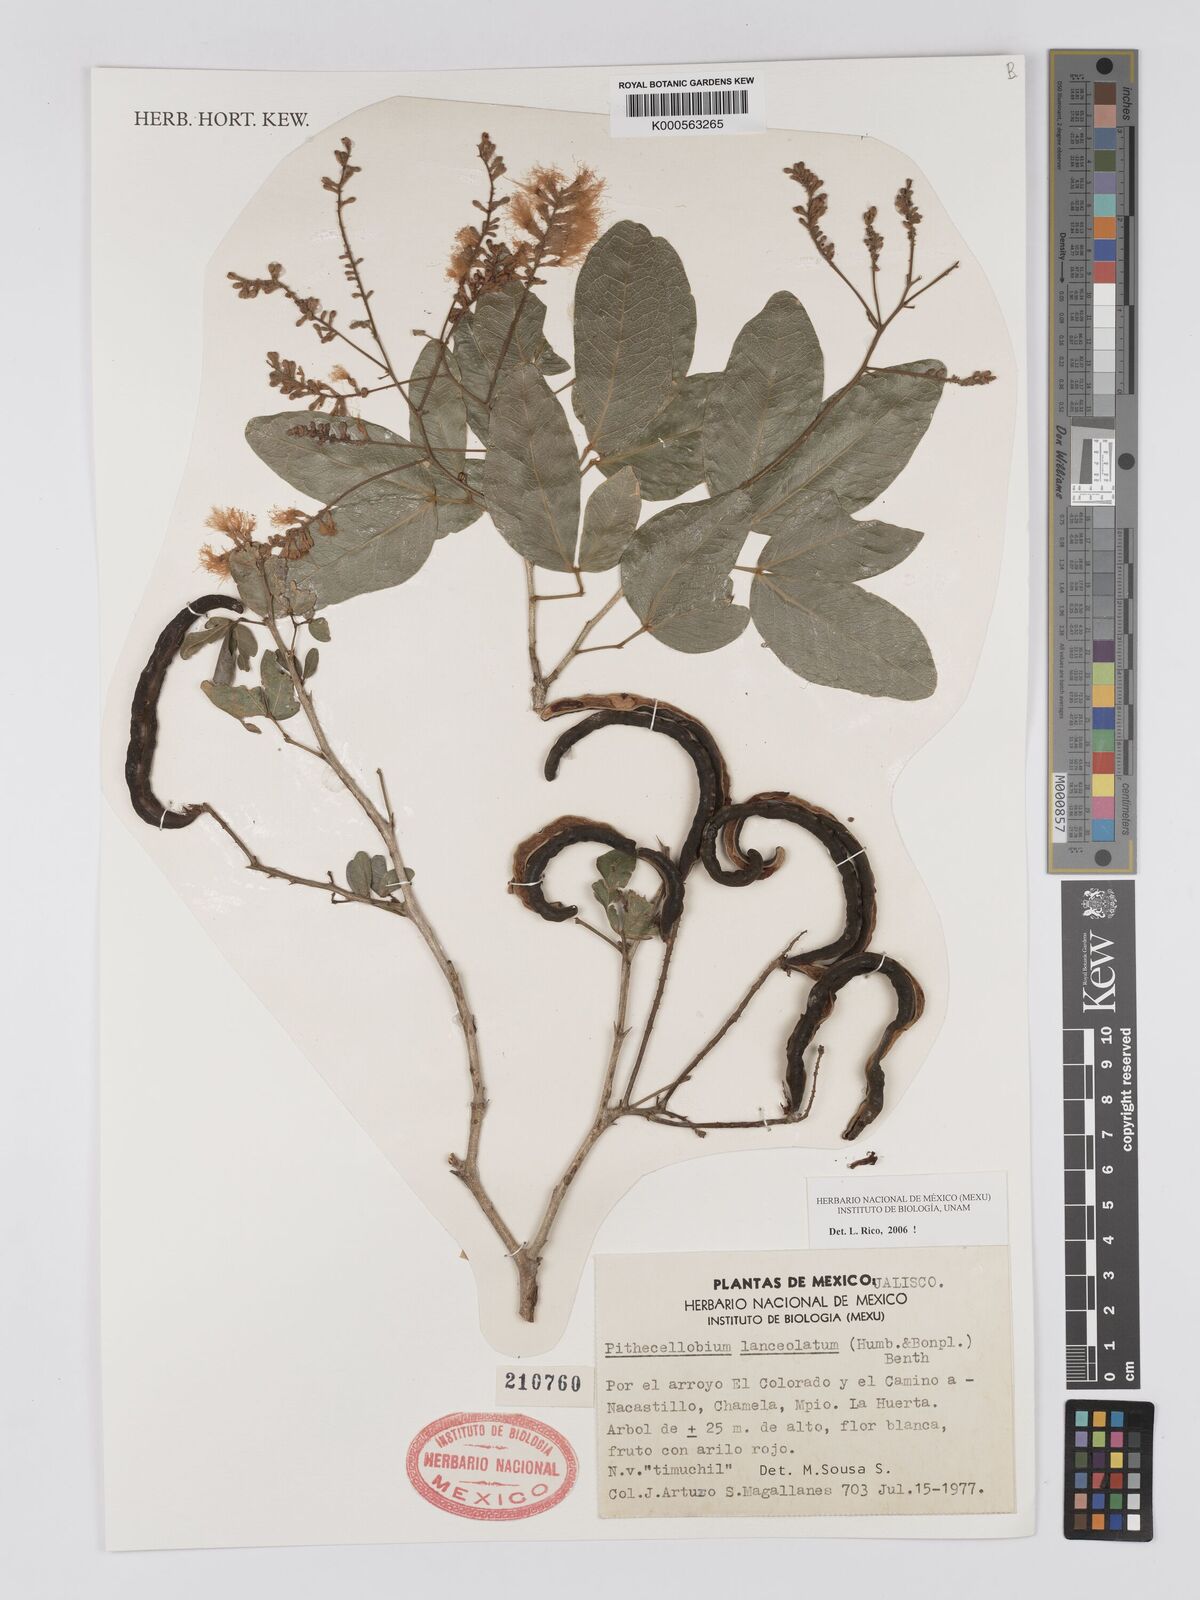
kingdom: Plantae
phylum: Tracheophyta
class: Magnoliopsida
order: Fabales
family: Fabaceae
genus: Pithecellobium
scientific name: Pithecellobium lanceolatum
